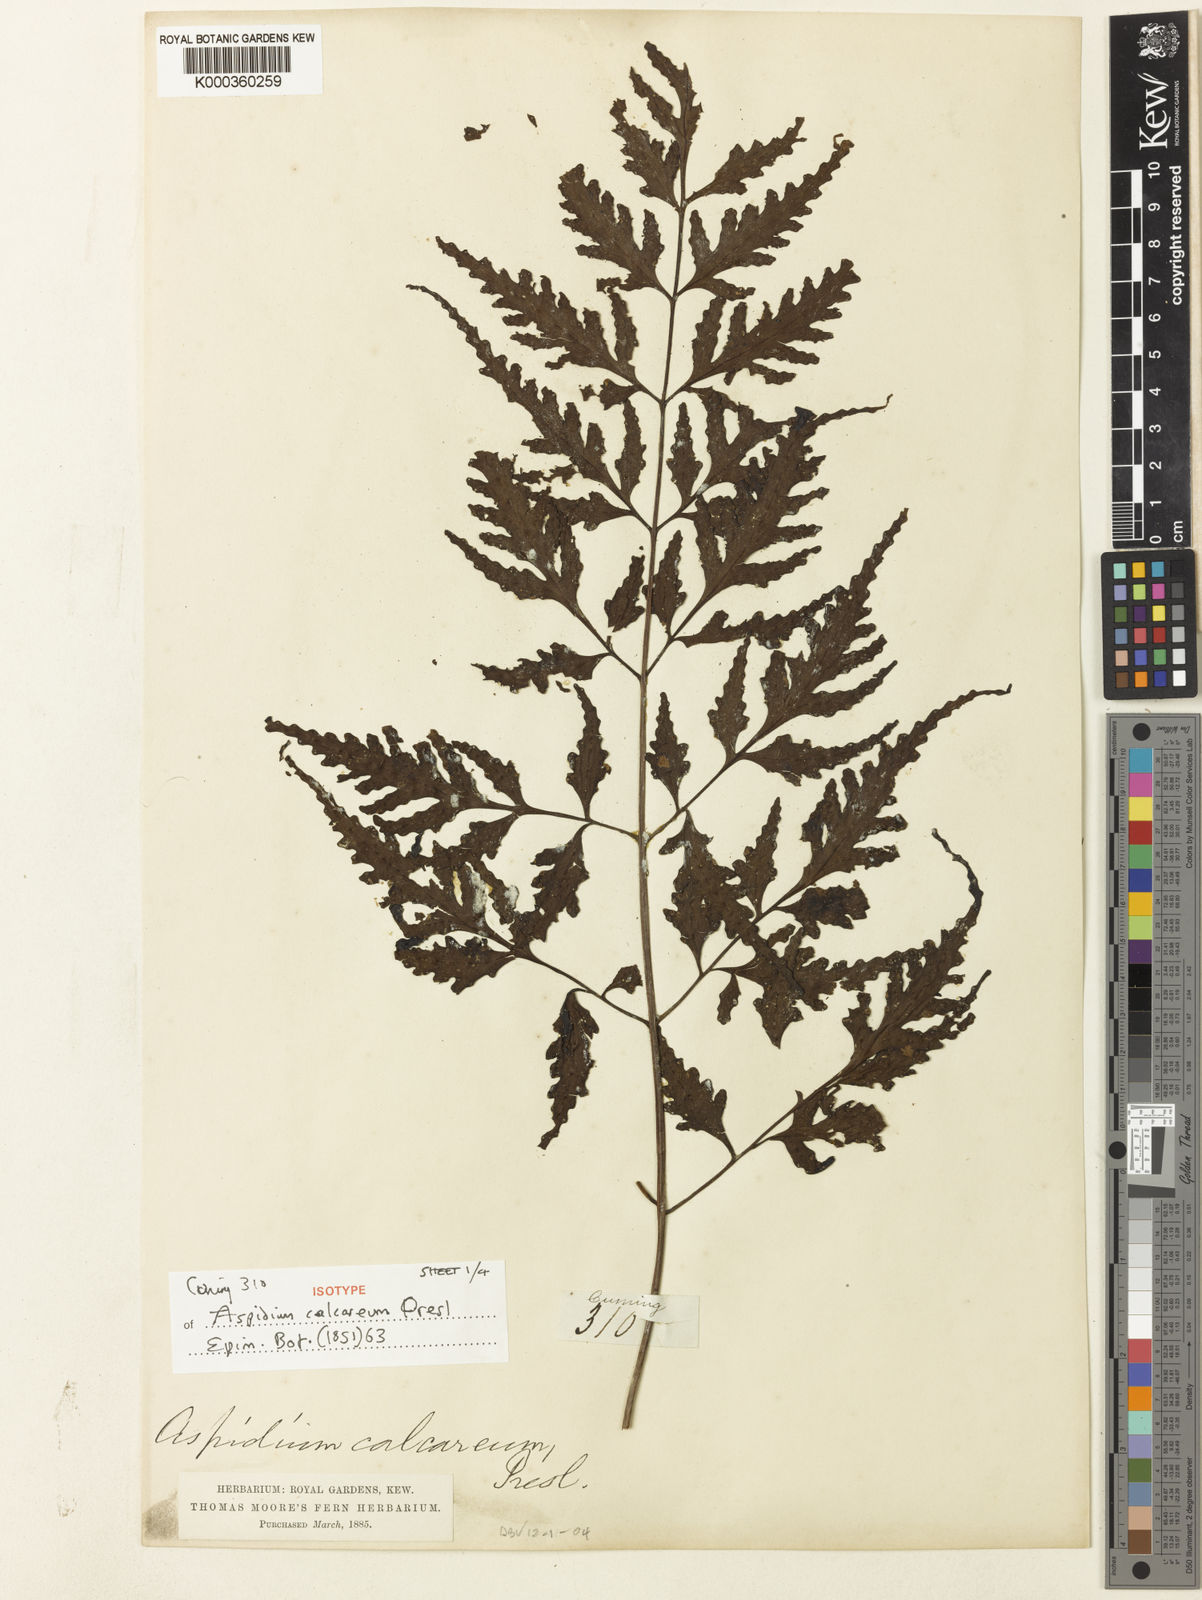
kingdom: Plantae
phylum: Tracheophyta
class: Polypodiopsida
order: Polypodiales
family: Tectariaceae
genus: Tectaria
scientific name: Tectaria calcarea
